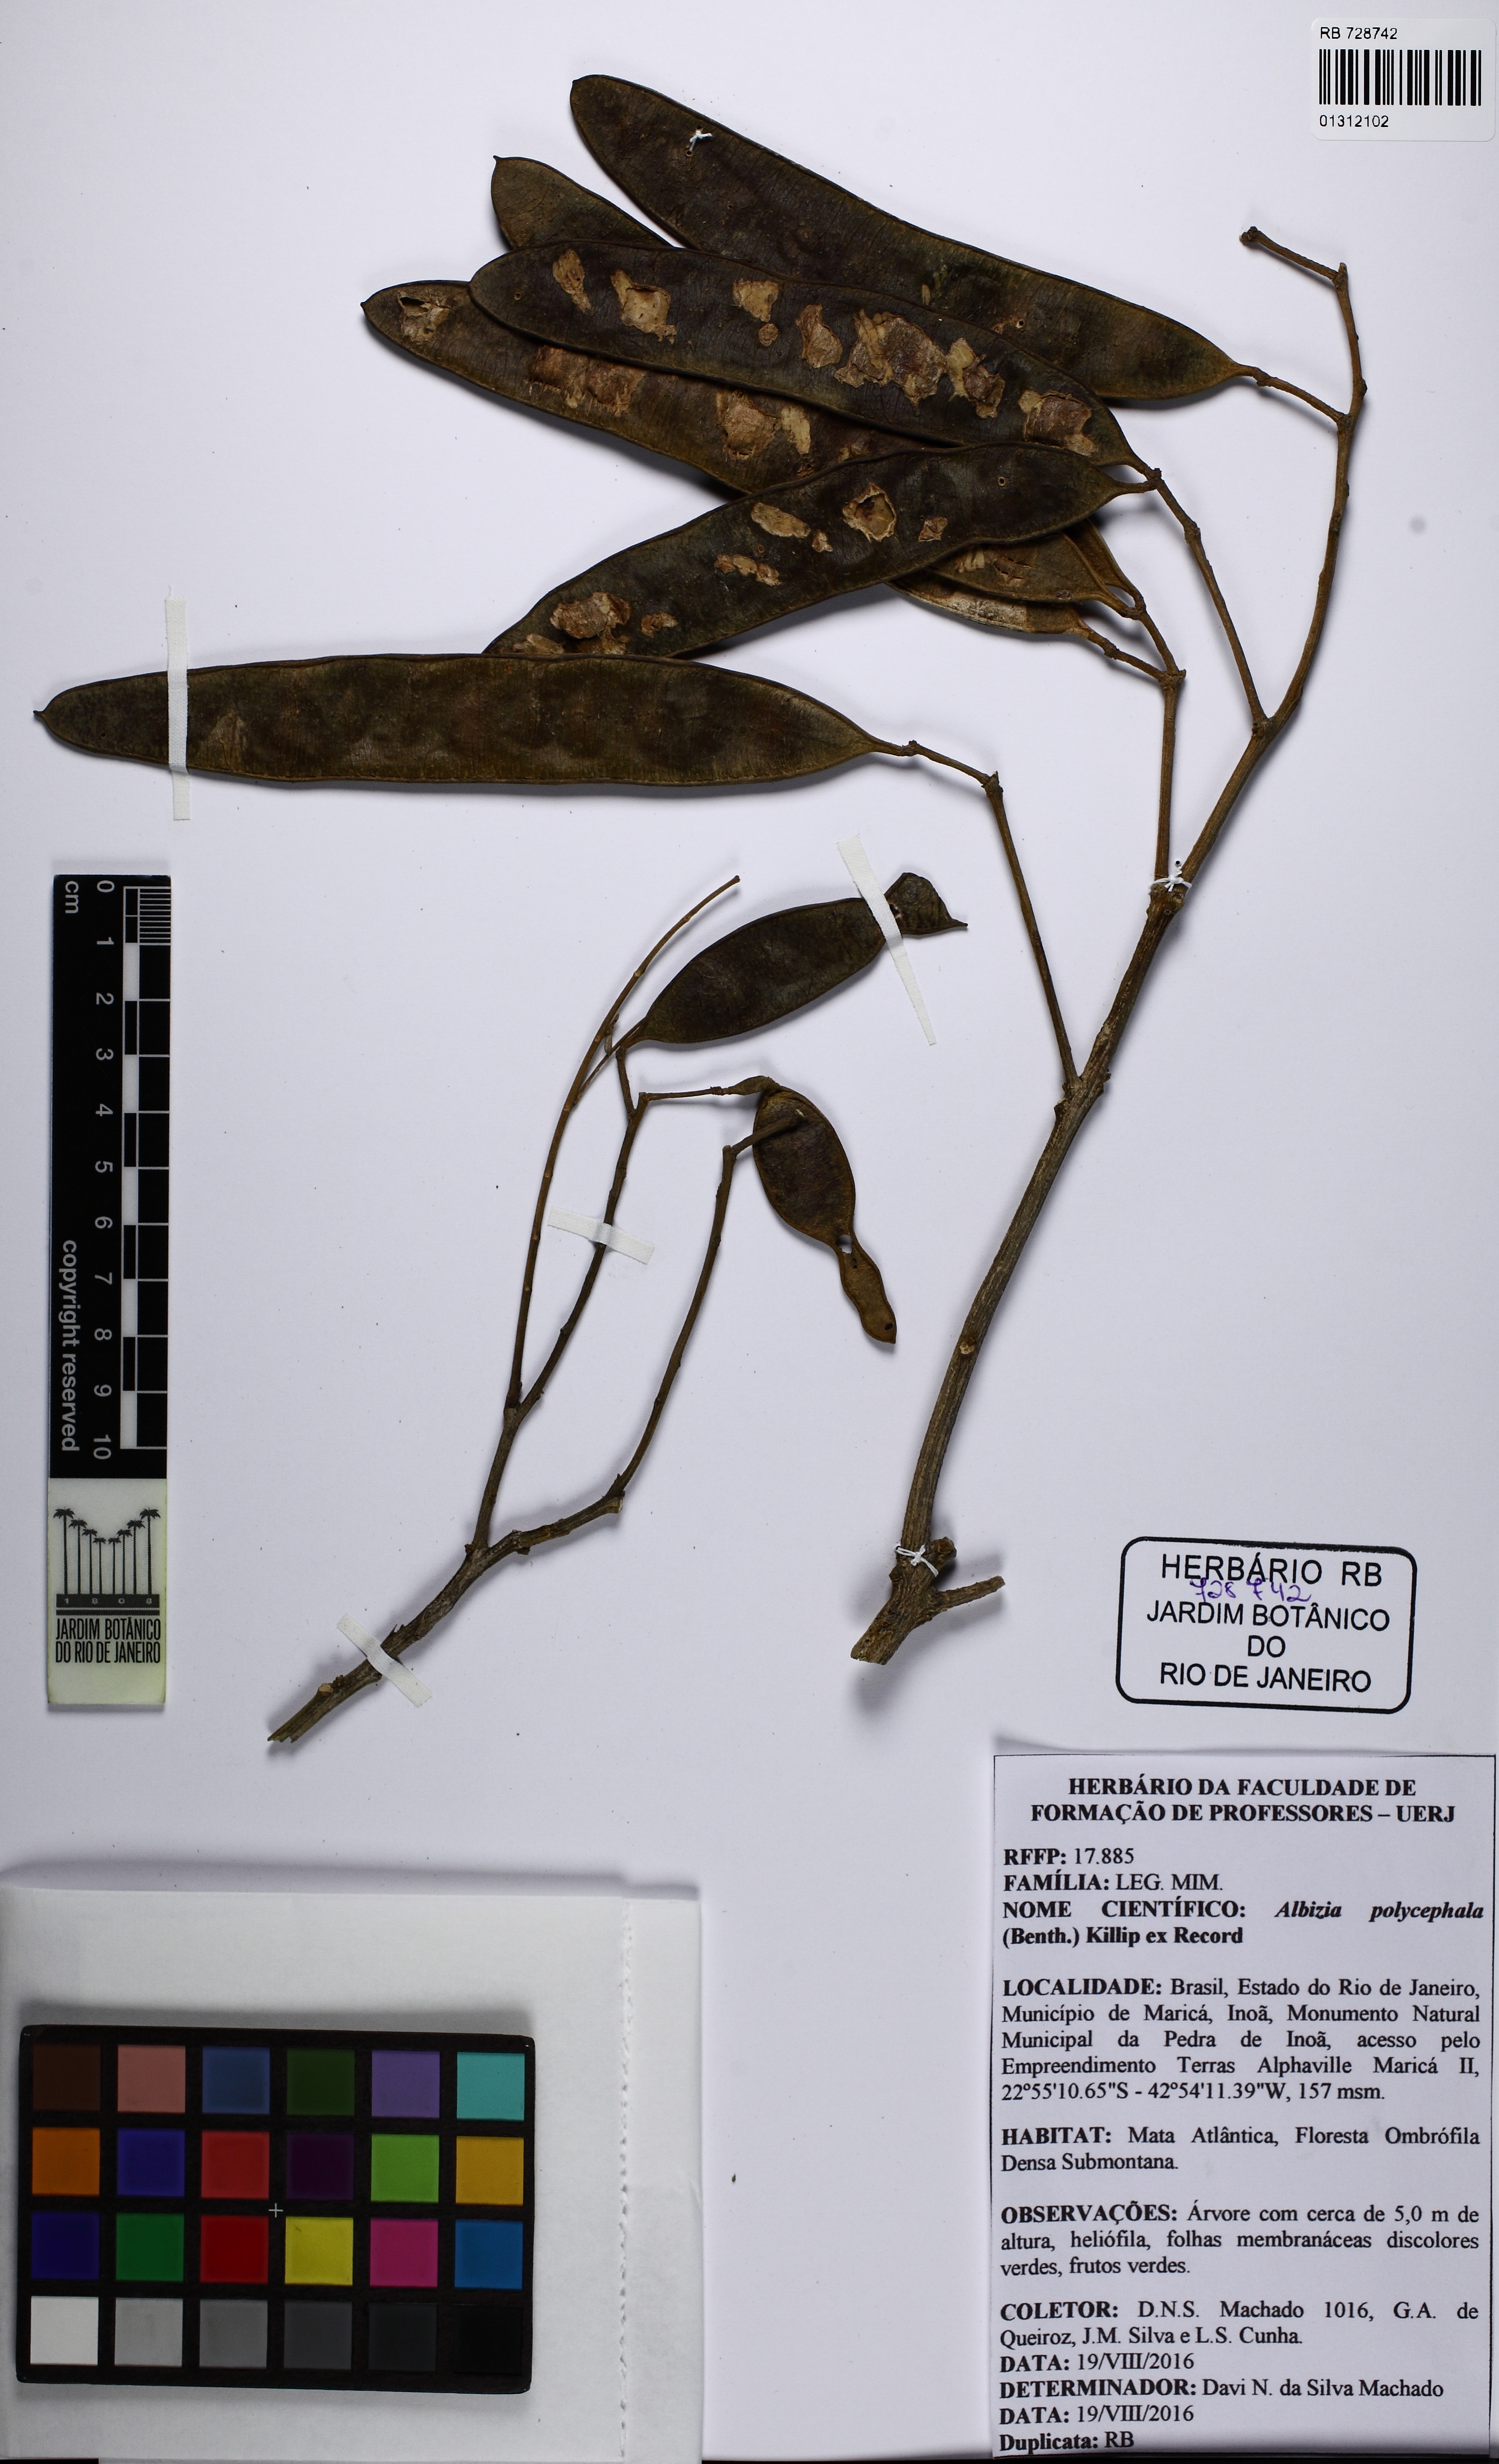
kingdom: Plantae
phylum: Tracheophyta
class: Magnoliopsida
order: Fabales
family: Fabaceae
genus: Albizia
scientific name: Albizia inundata
